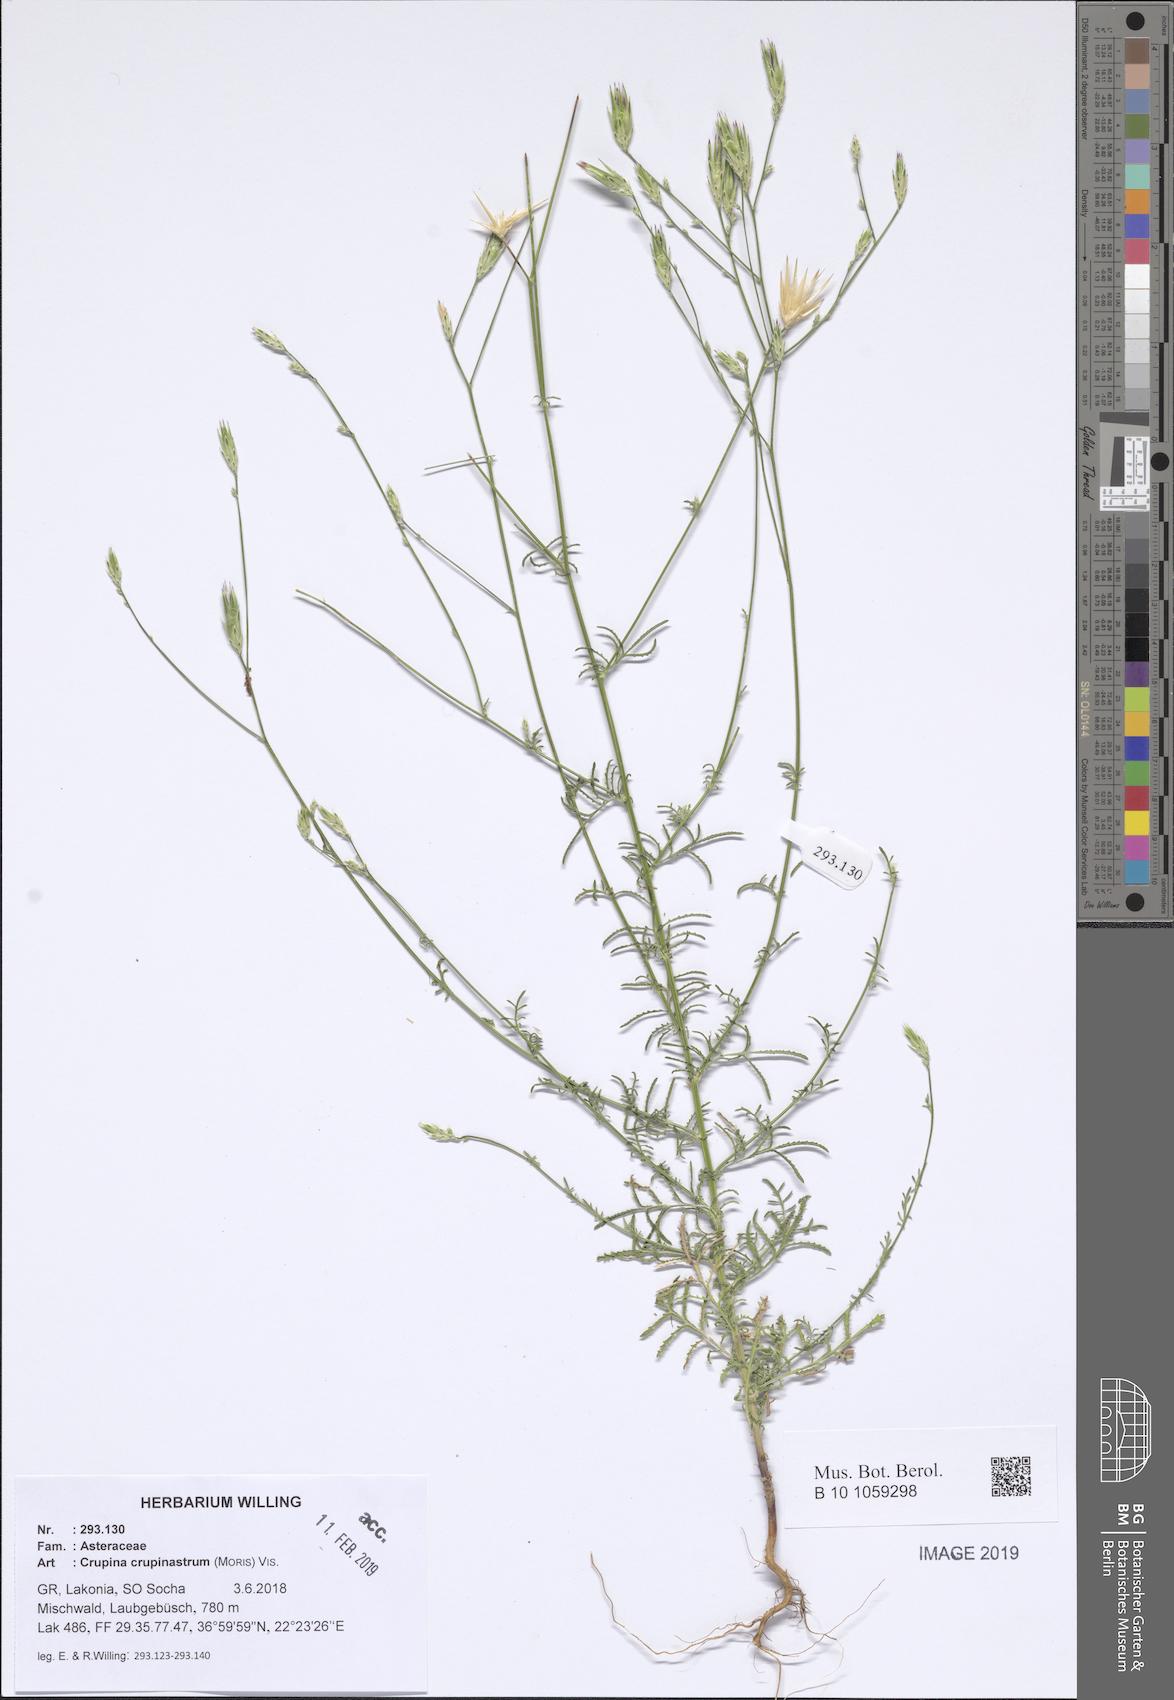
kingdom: Plantae
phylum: Tracheophyta
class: Magnoliopsida
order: Asterales
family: Asteraceae
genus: Crupina
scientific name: Crupina crupinastrum
